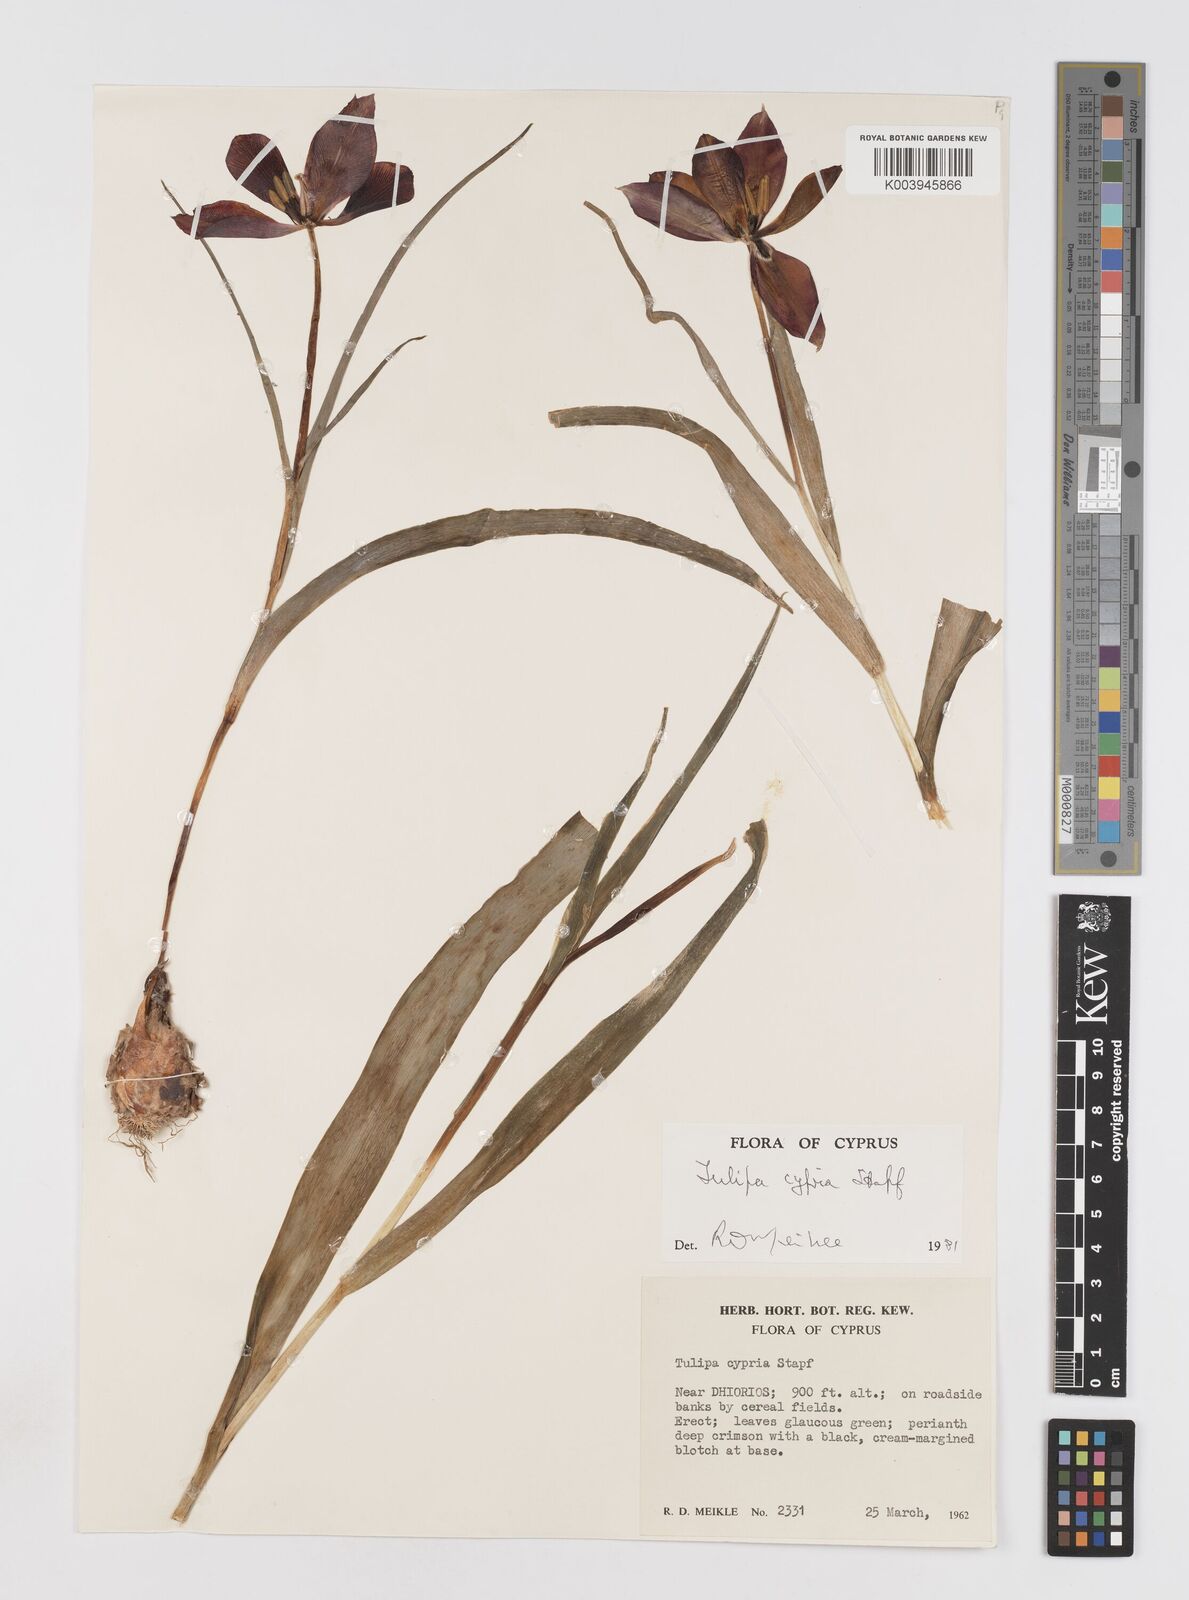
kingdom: Plantae
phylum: Tracheophyta
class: Liliopsida
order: Liliales
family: Liliaceae
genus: Tulipa
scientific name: Tulipa agenensis
